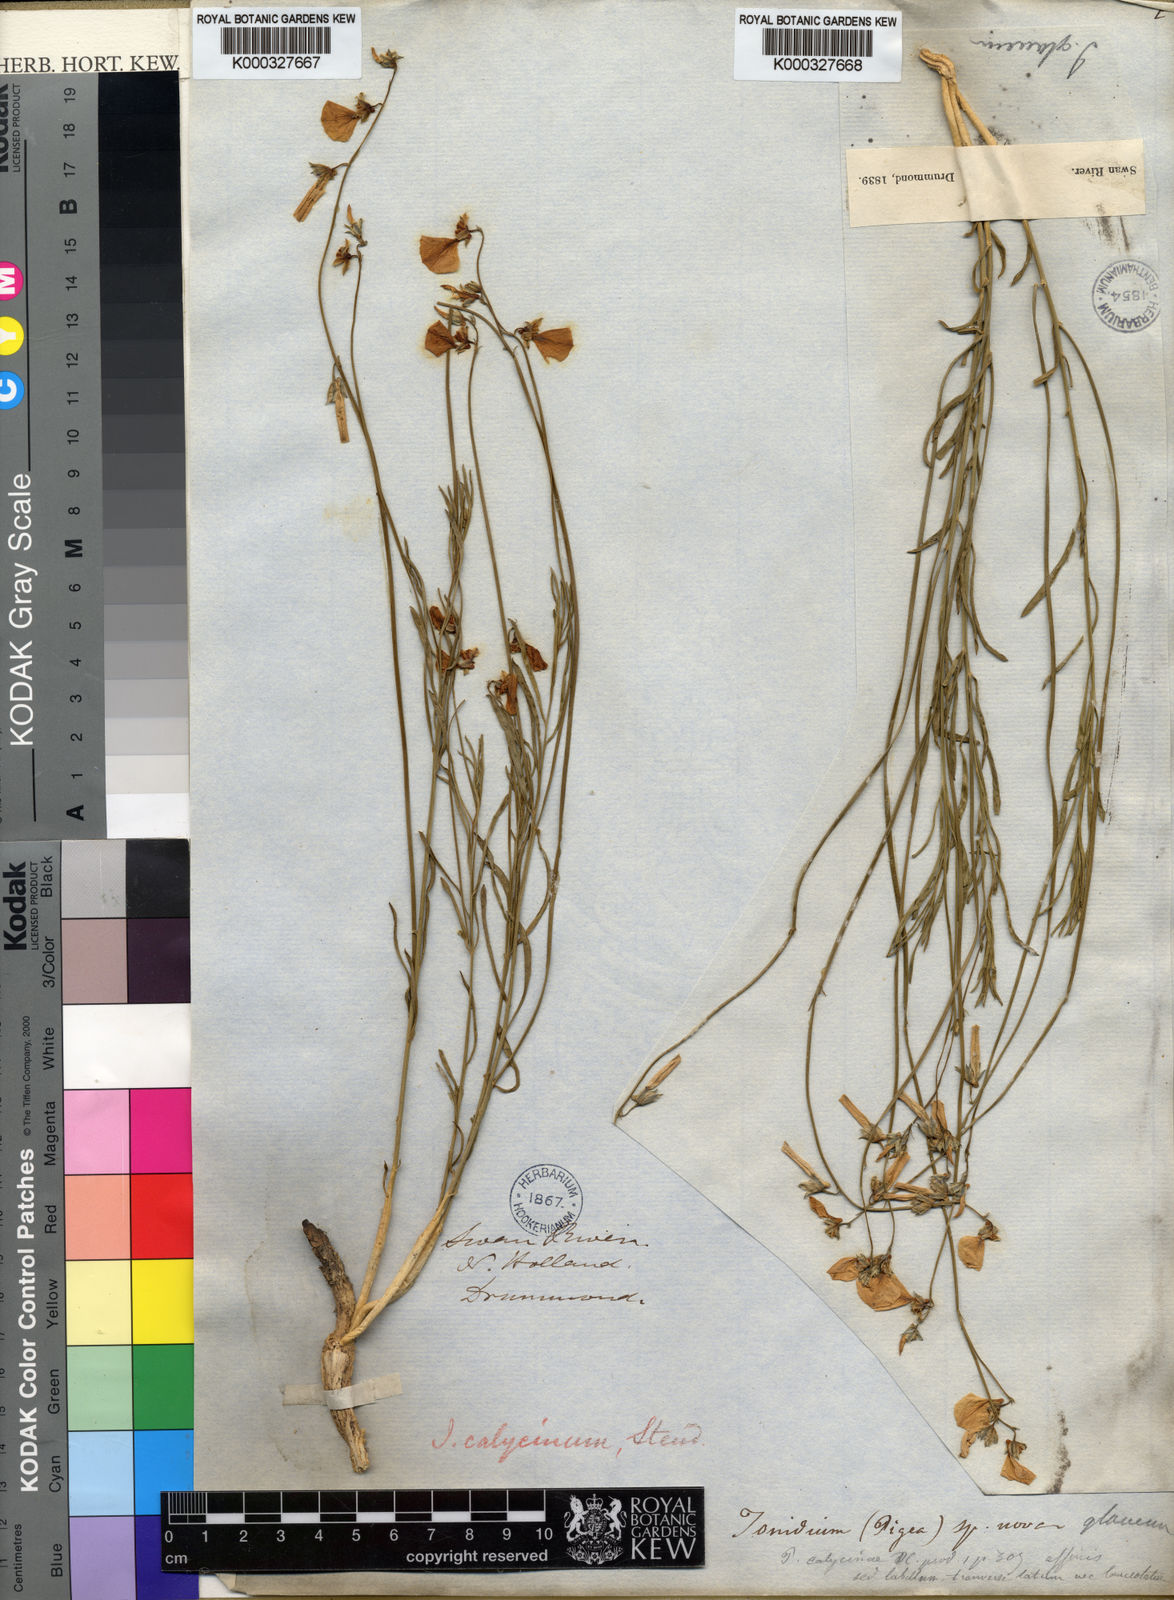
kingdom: Plantae
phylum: Tracheophyta
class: Magnoliopsida
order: Malpighiales
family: Violaceae
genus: Pigea
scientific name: Pigea calycina
